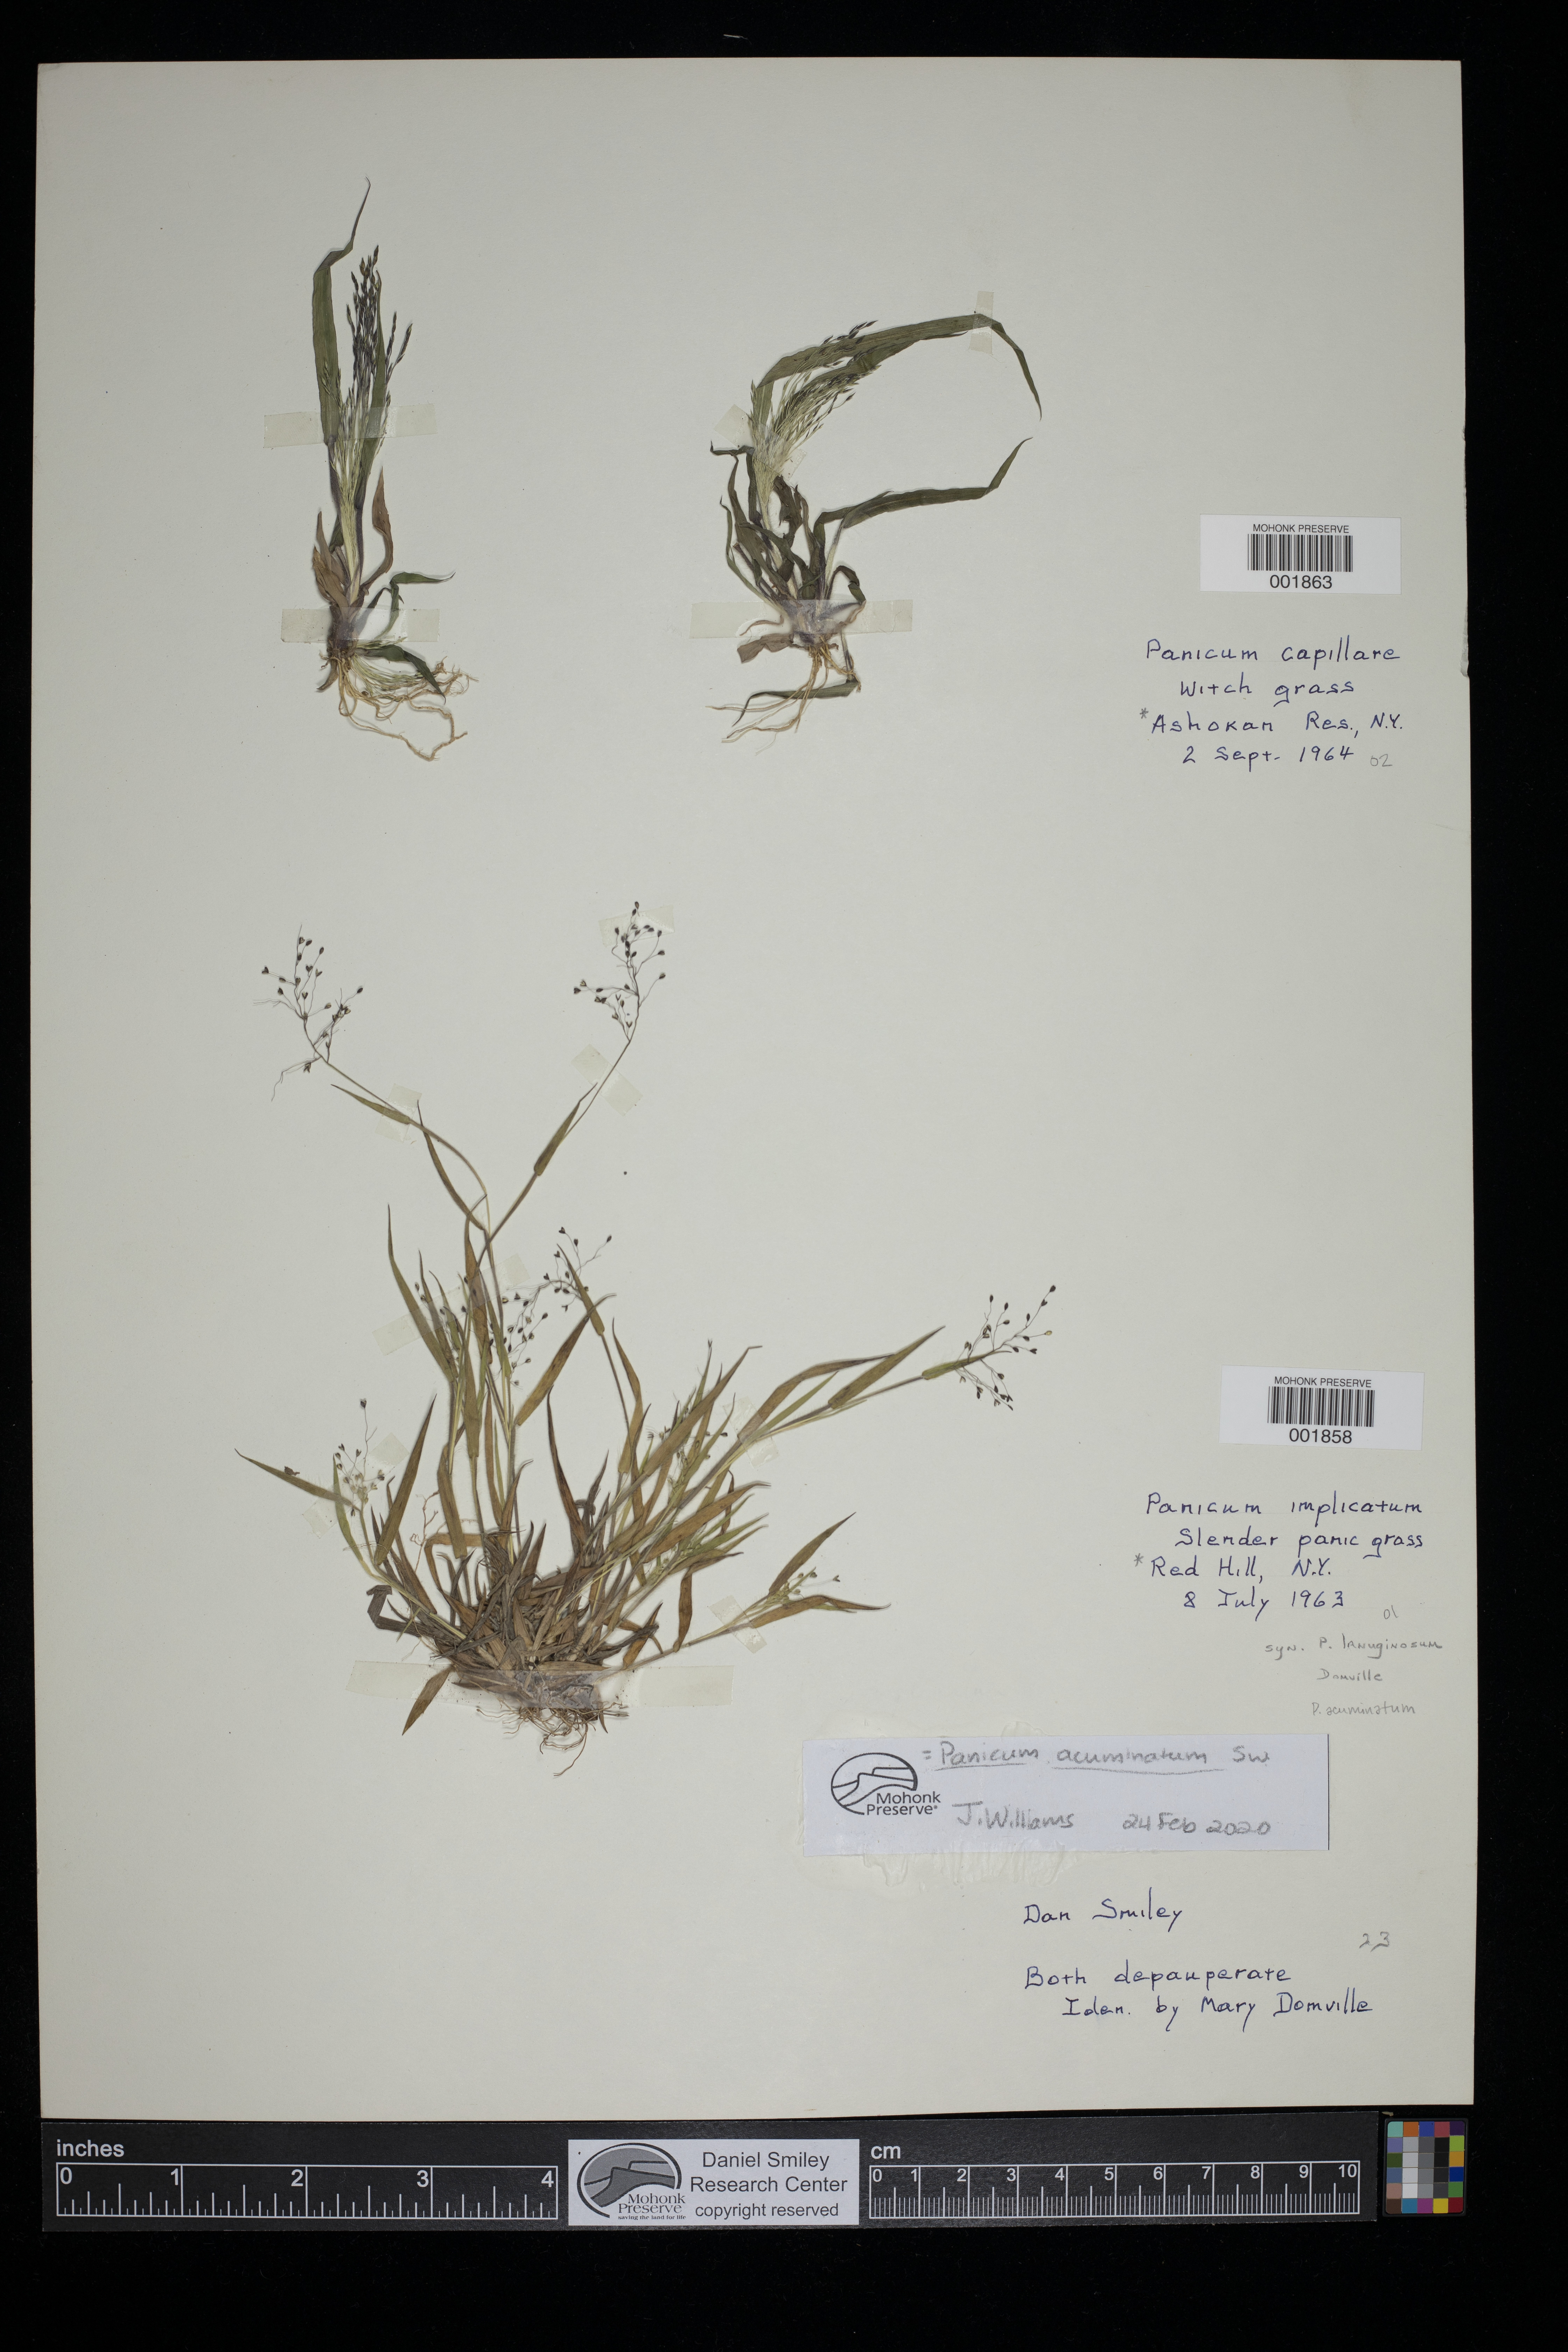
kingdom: Plantae
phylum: Tracheophyta
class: Liliopsida
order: Poales
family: Poaceae
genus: Dichanthelium
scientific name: Dichanthelium acuminatum
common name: Hairy panic grass
